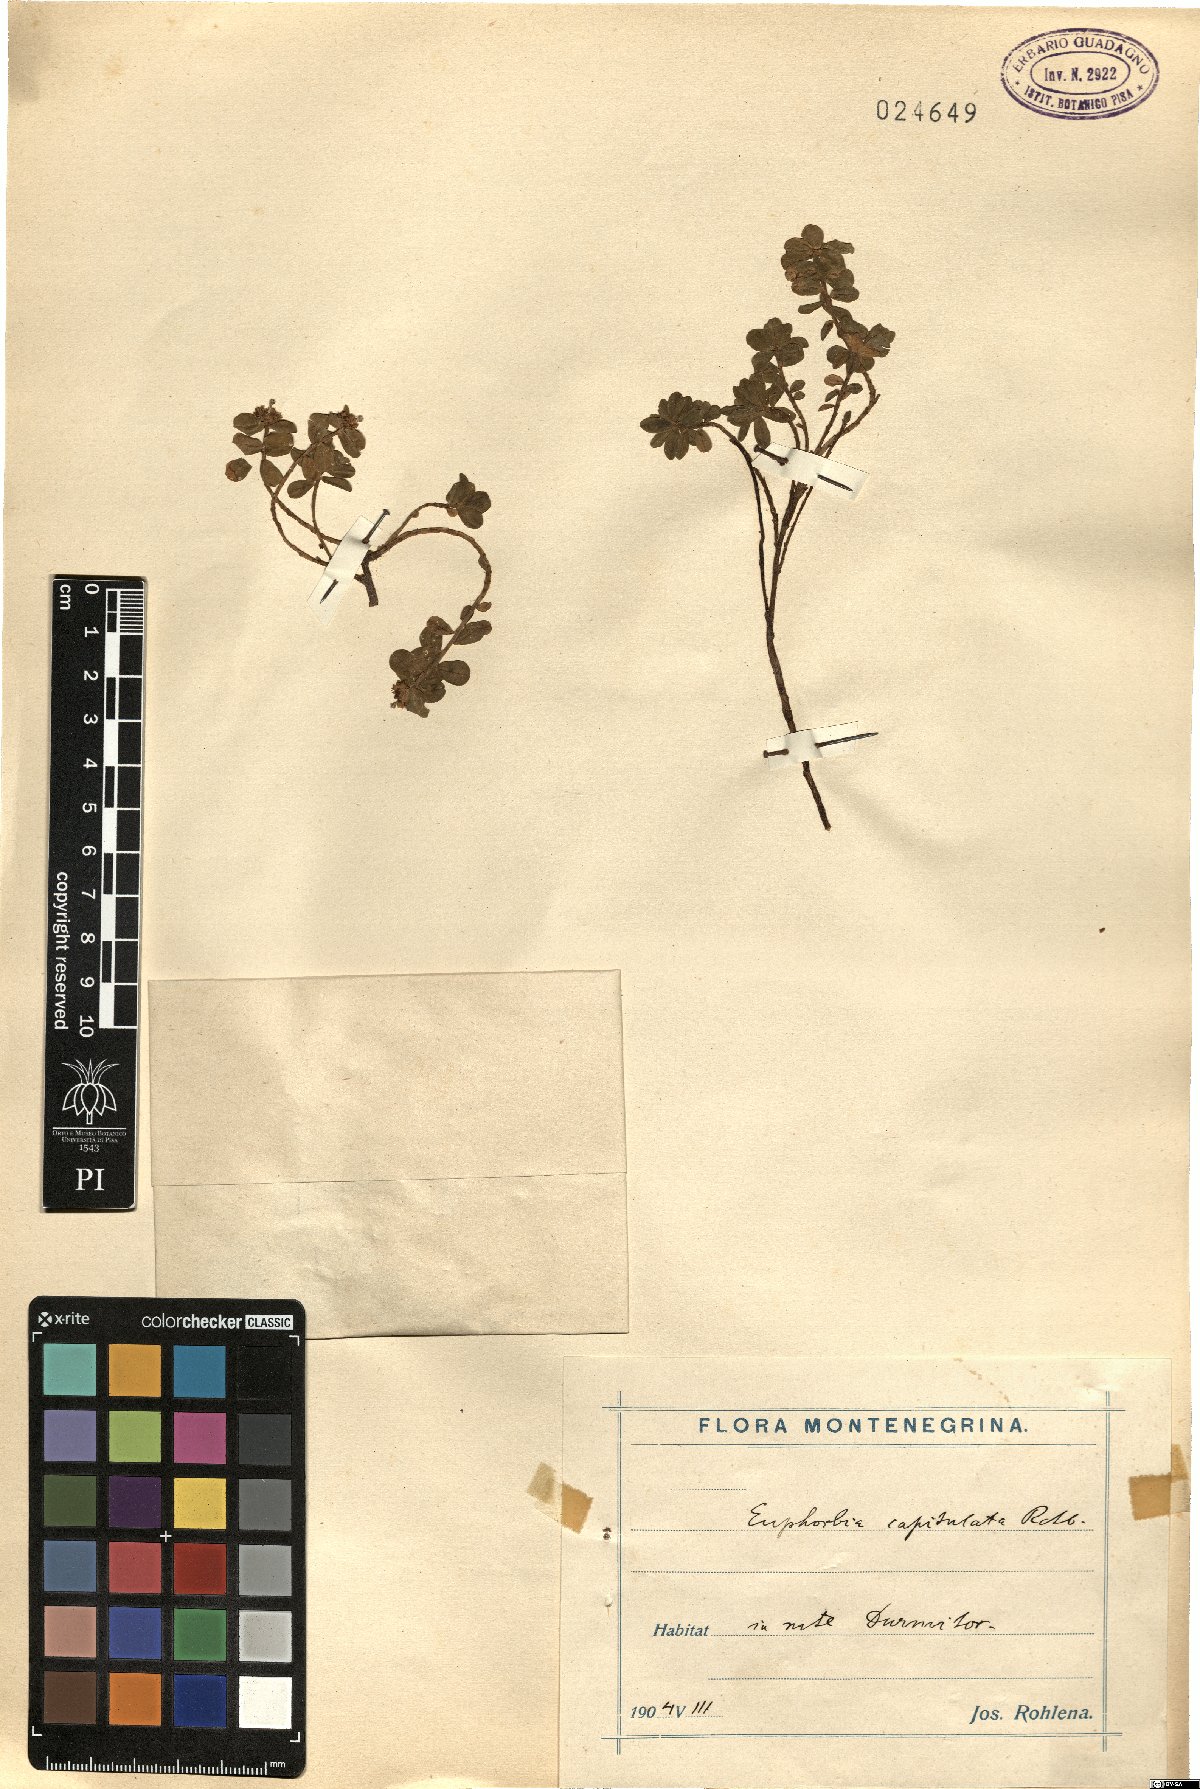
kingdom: Plantae
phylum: Tracheophyta
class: Magnoliopsida
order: Malpighiales
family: Euphorbiaceae
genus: Euphorbia
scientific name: Euphorbia capitulata
